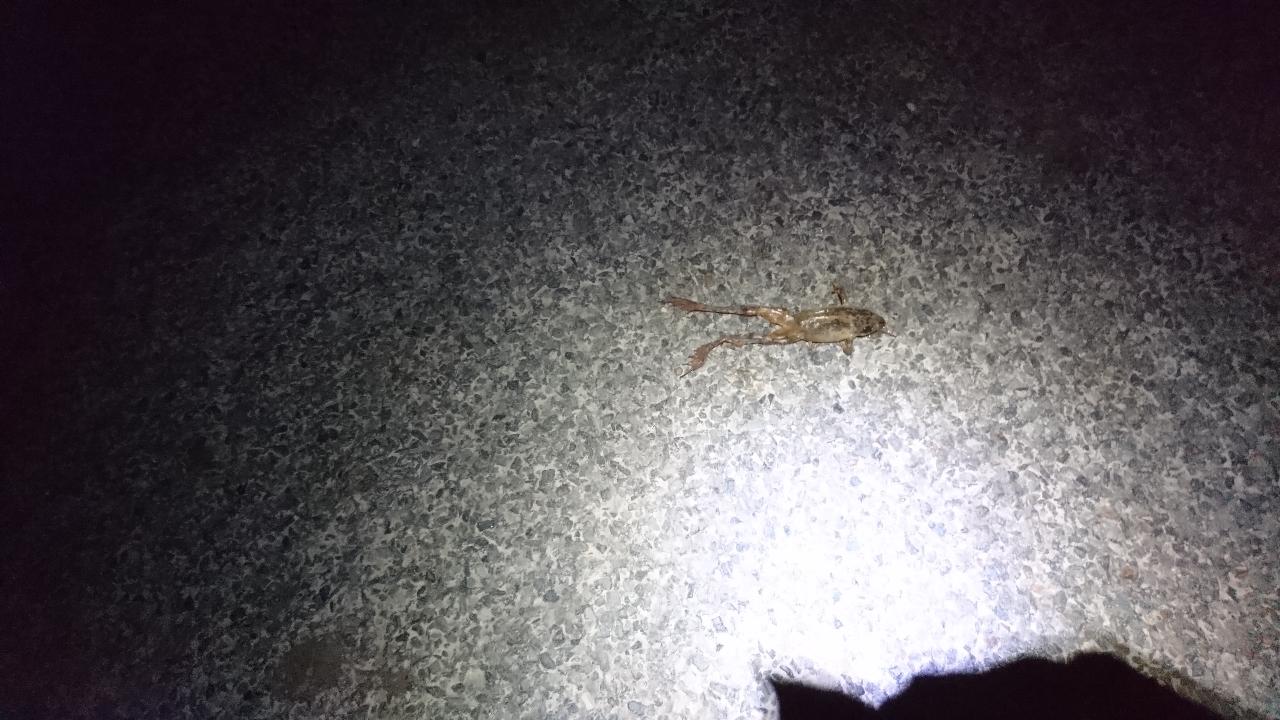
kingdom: Animalia
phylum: Chordata
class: Amphibia
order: Anura
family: Ranidae
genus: Rana
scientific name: Rana dalmatina
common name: Agile frog
